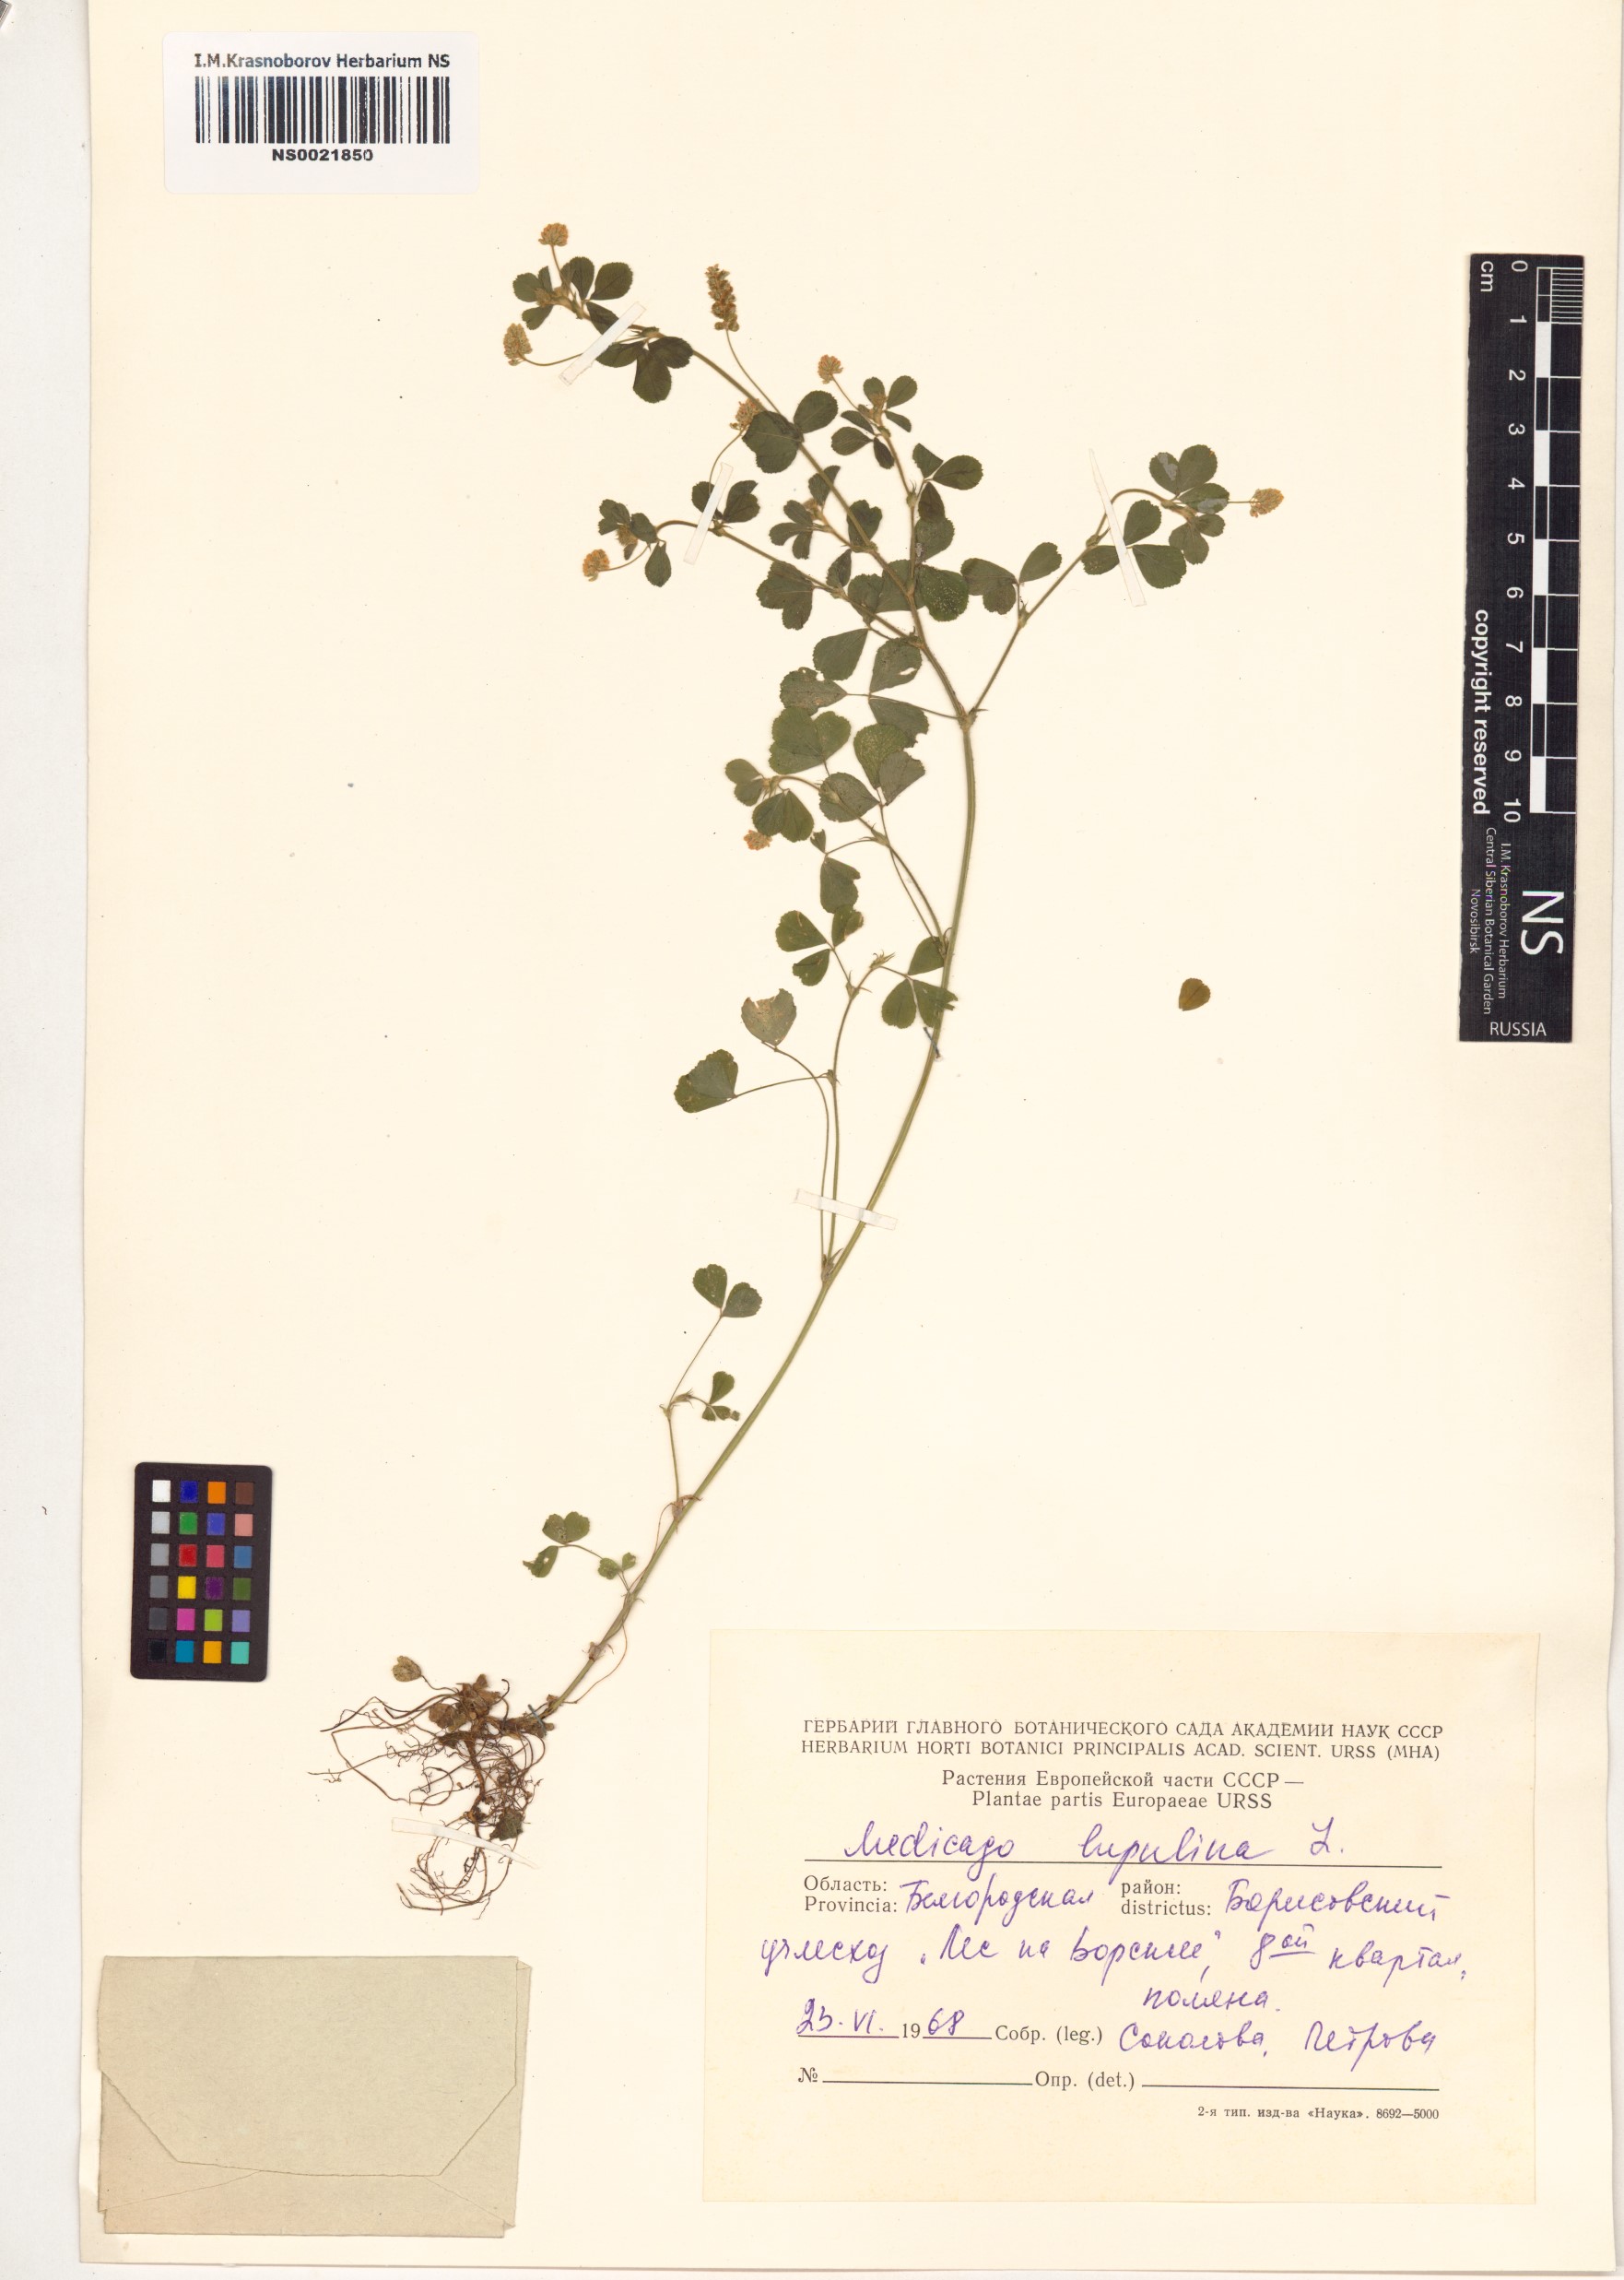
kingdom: Plantae
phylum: Tracheophyta
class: Magnoliopsida
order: Fabales
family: Fabaceae
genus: Medicago
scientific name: Medicago lupulina
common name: Black medick
